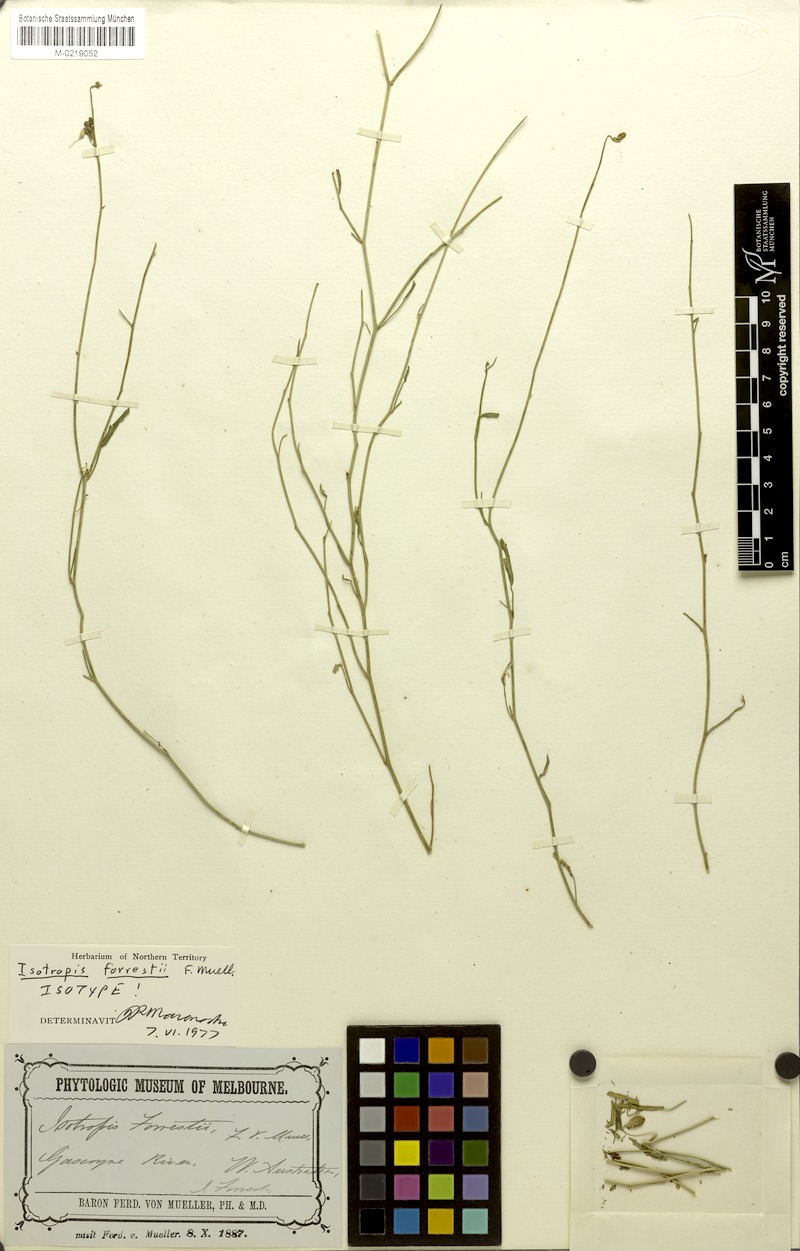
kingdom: Plantae
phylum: Tracheophyta
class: Magnoliopsida
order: Fabales
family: Fabaceae
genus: Isotropis
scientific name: Isotropis forrestii
